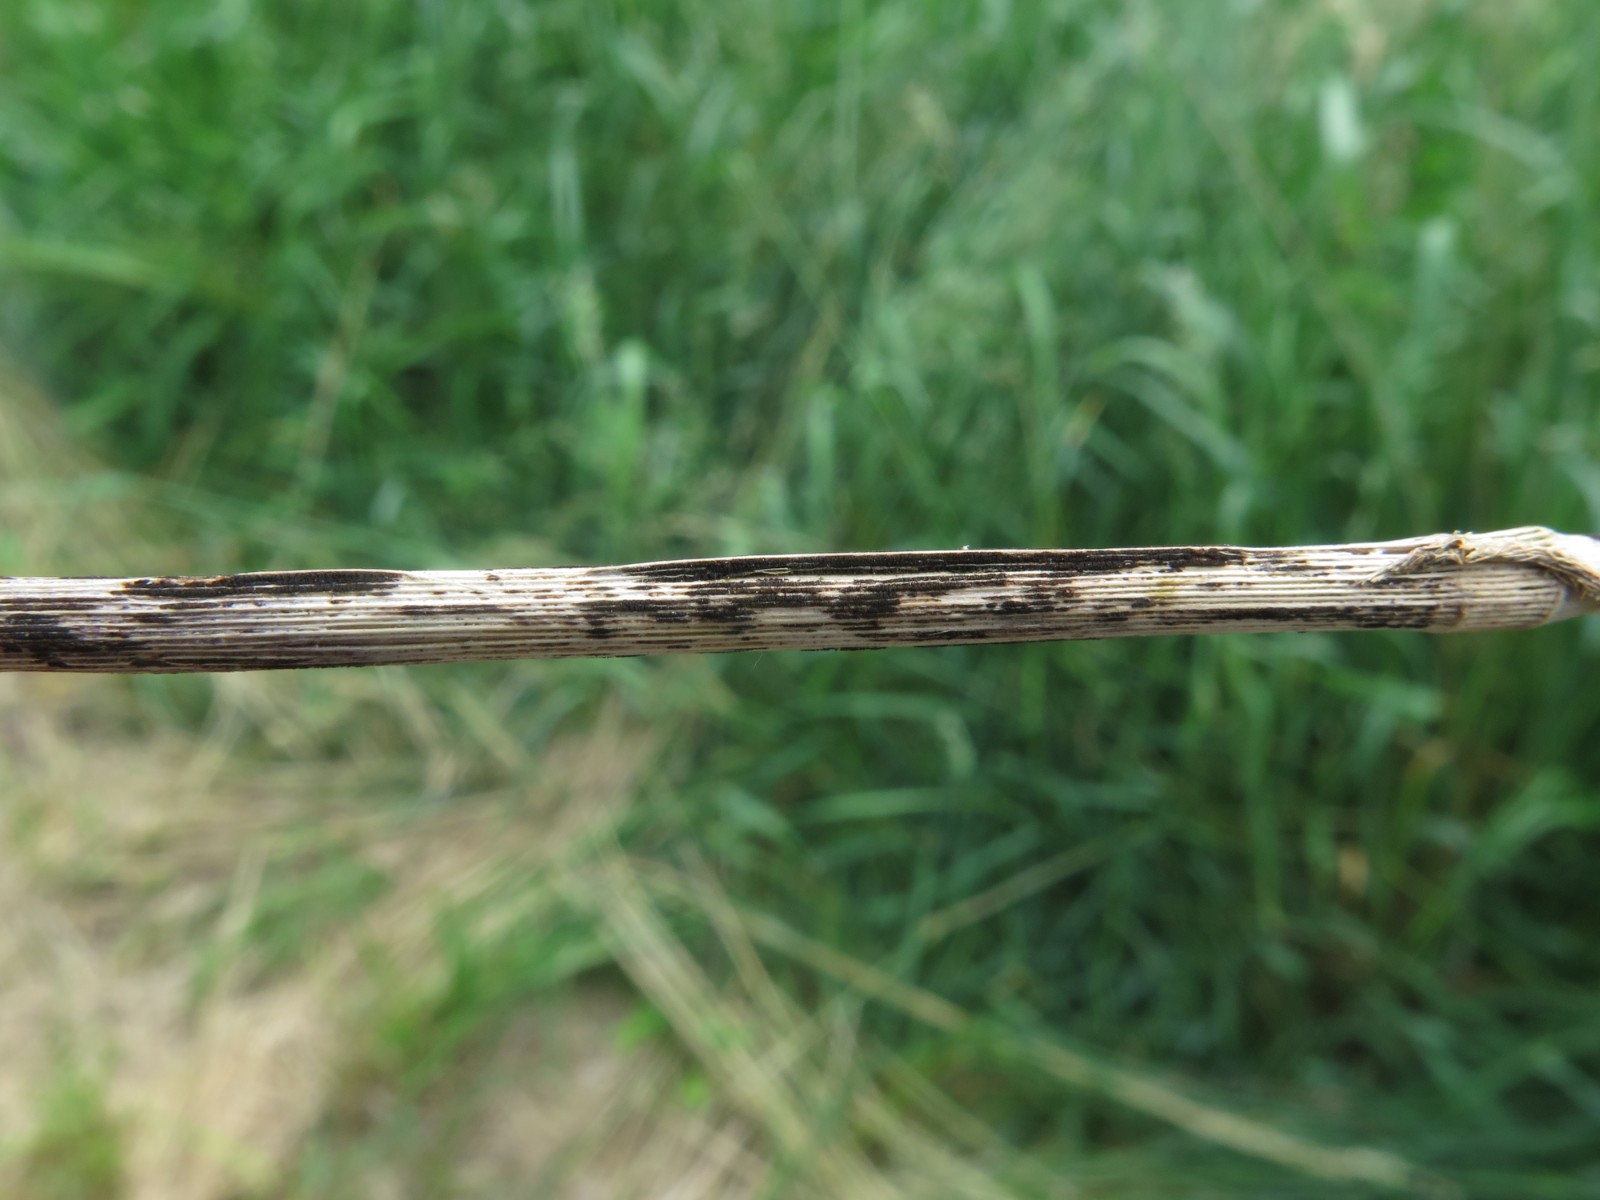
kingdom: Fungi
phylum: Basidiomycota
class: Pucciniomycetes
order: Pucciniales
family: Pucciniaceae
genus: Puccinia
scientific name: Puccinia
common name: tvecellerust
